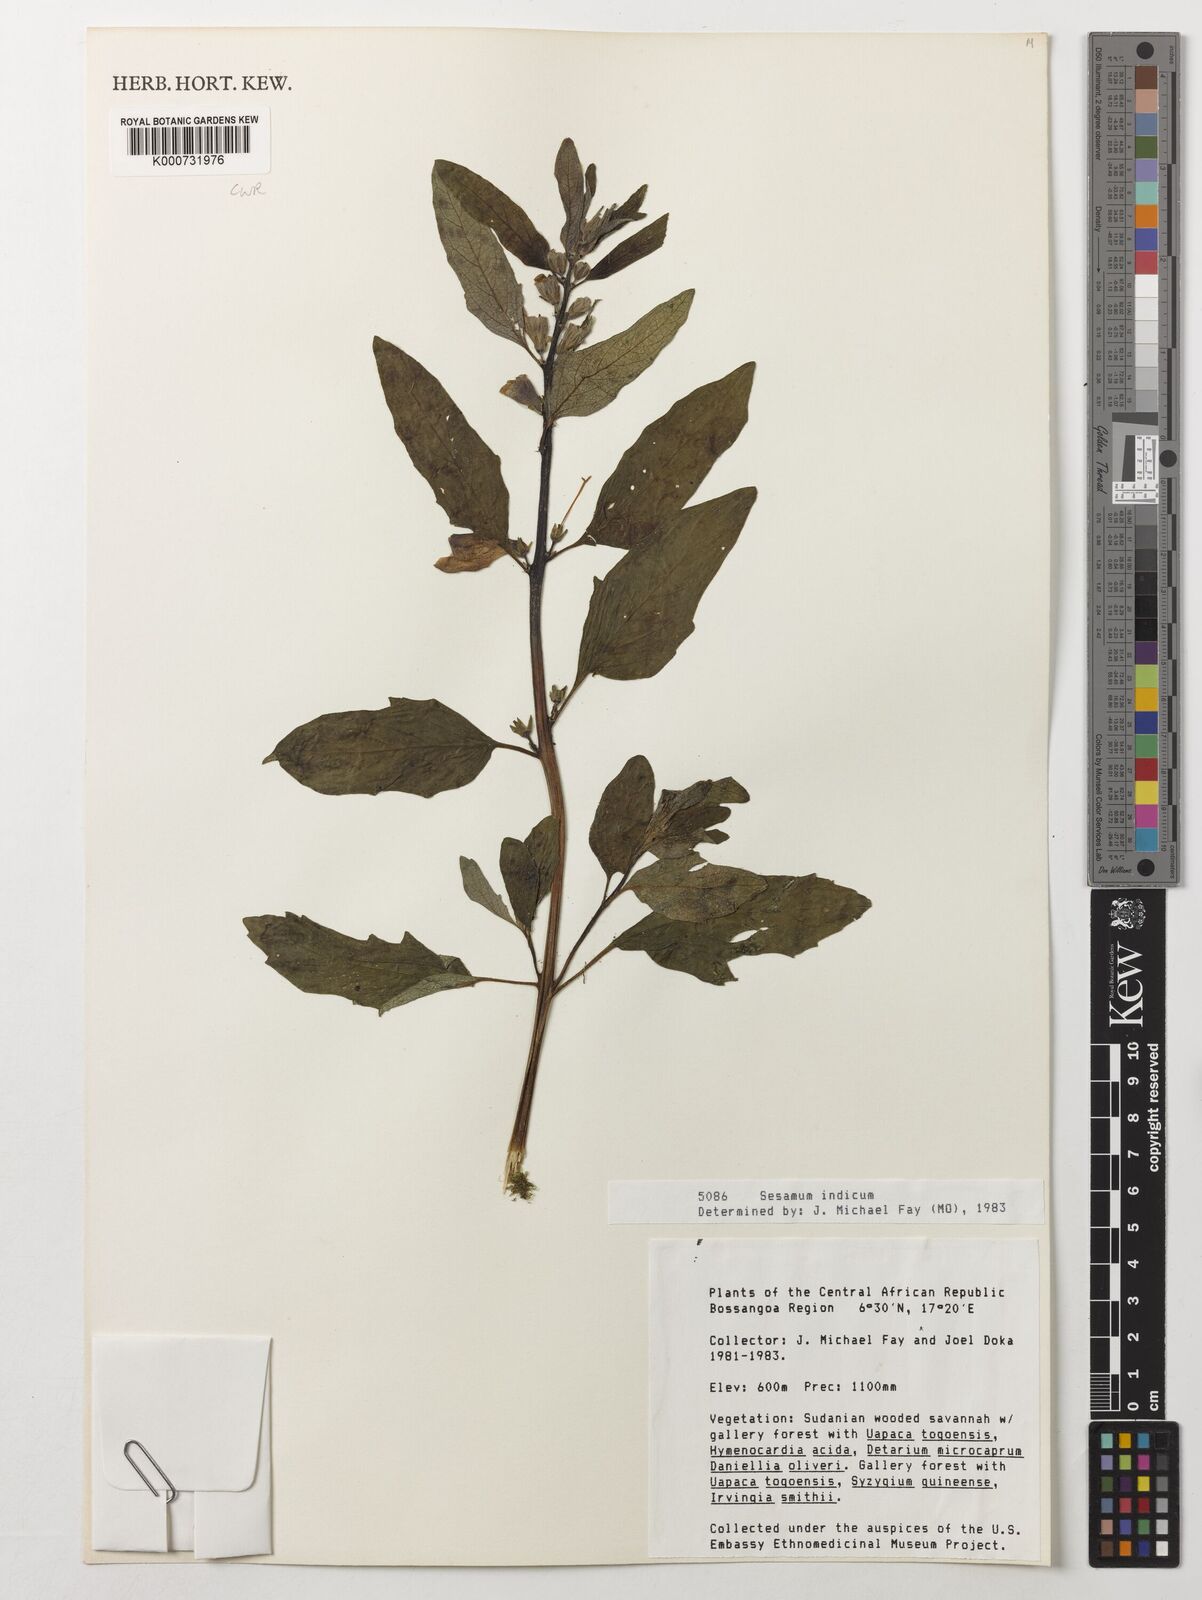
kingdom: Plantae
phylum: Tracheophyta
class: Magnoliopsida
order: Lamiales
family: Pedaliaceae
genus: Sesamum
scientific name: Sesamum indicum
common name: Sesame
